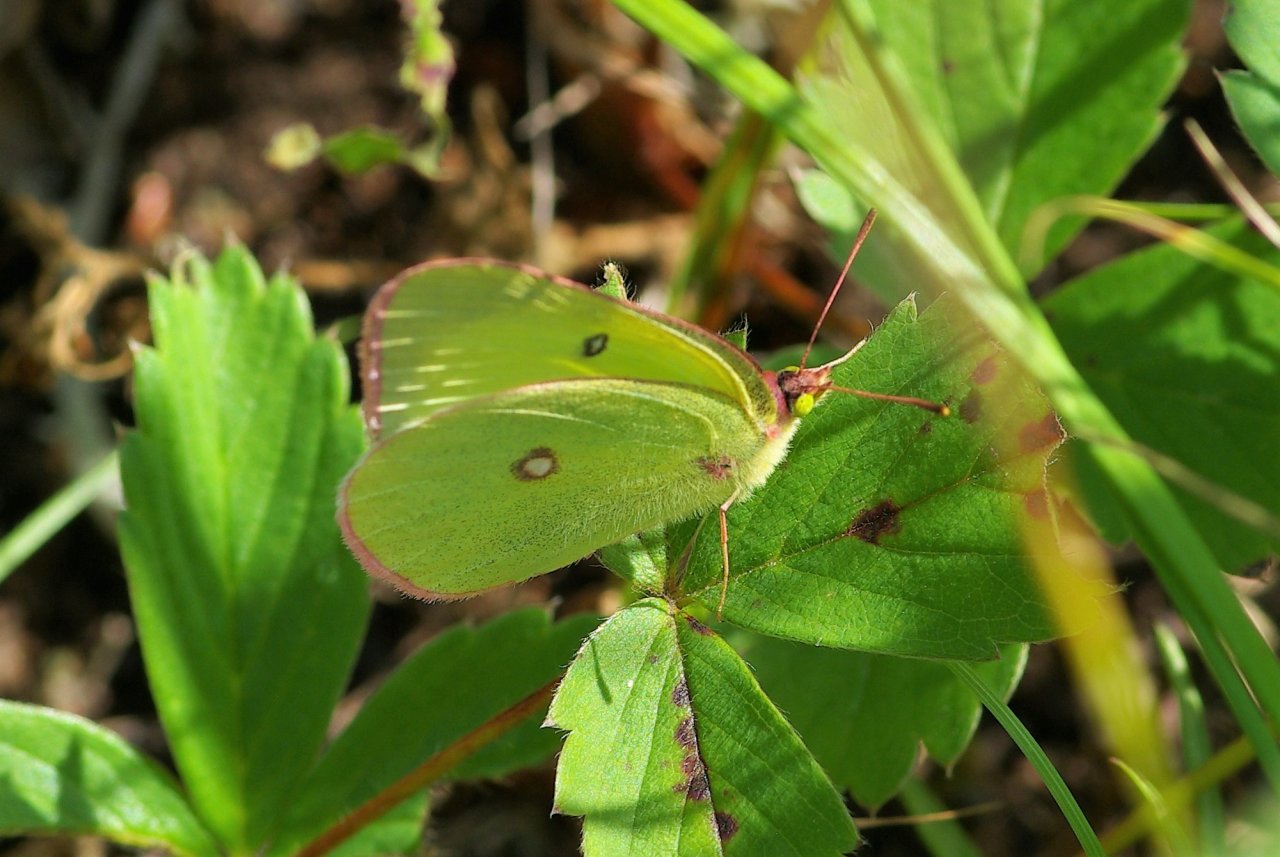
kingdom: Animalia
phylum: Arthropoda
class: Insecta
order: Lepidoptera
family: Pieridae
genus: Colias
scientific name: Colias interior
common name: Pink-edged Sulphur
